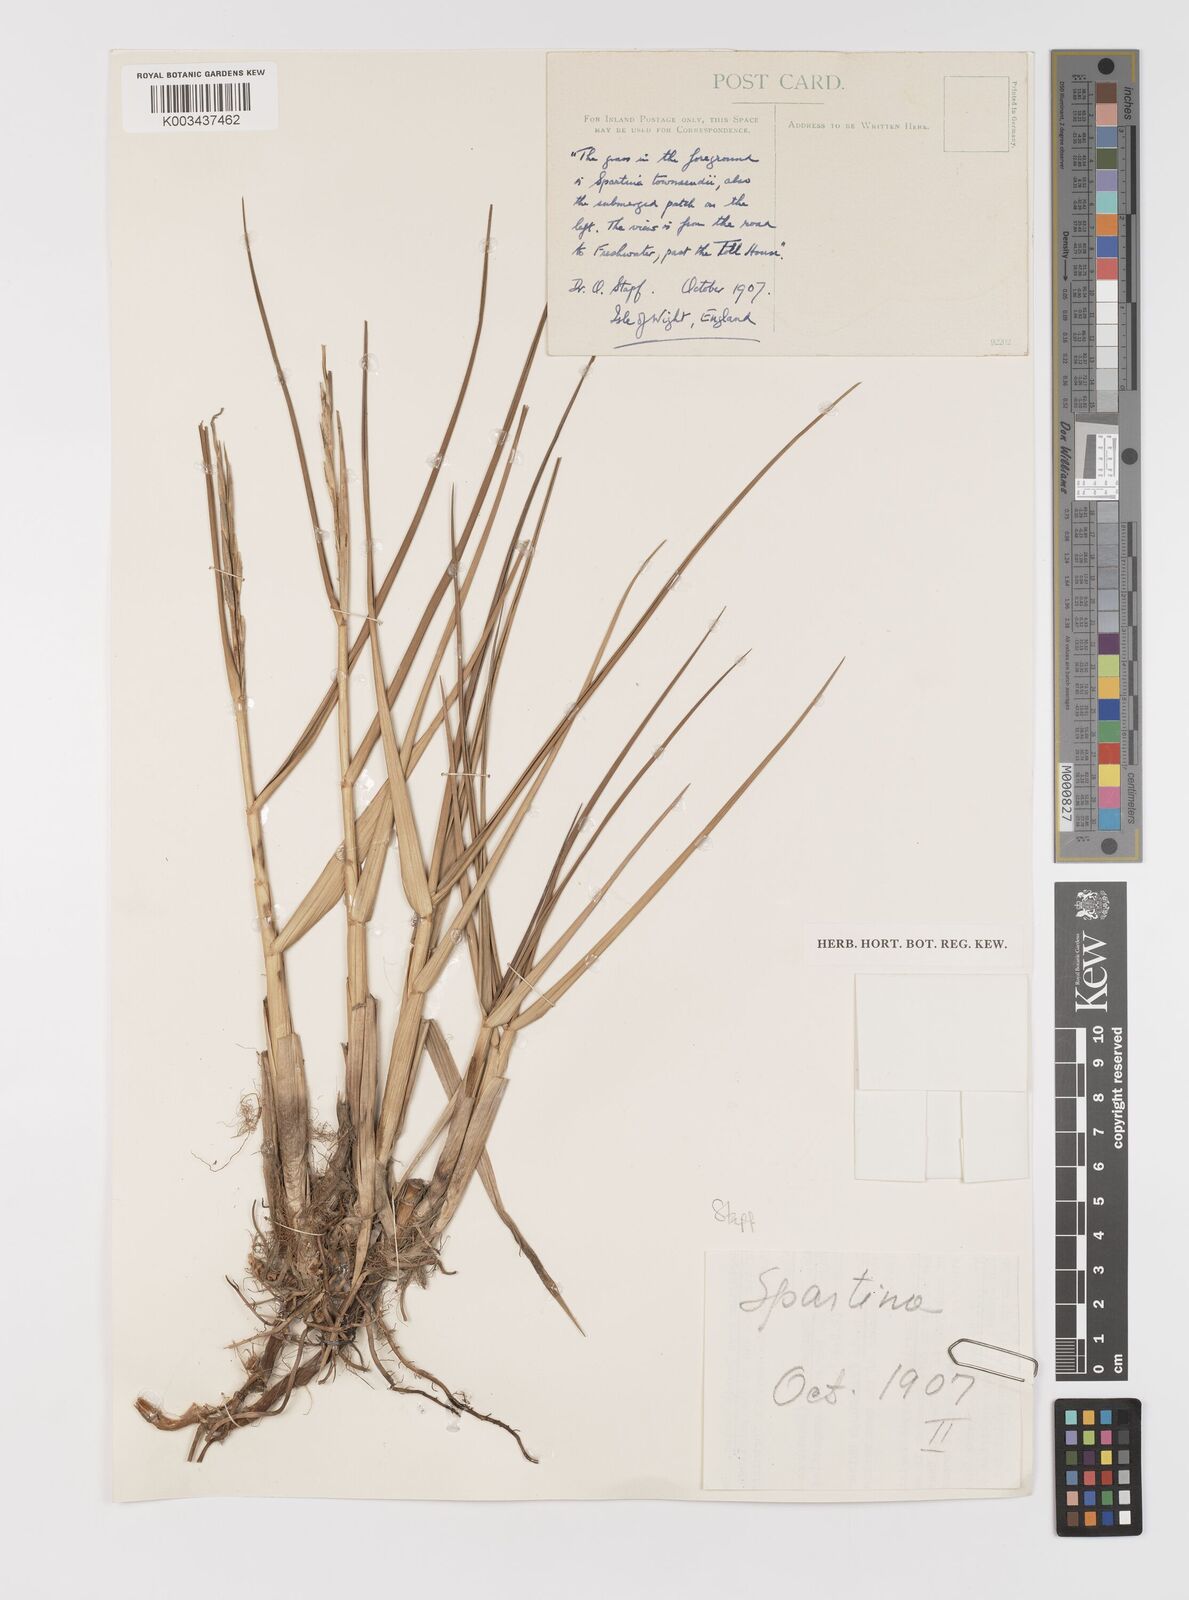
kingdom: Plantae
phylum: Tracheophyta
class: Liliopsida
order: Poales
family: Poaceae
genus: Sporobolus
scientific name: Sporobolus anglicus
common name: English cordgrass
